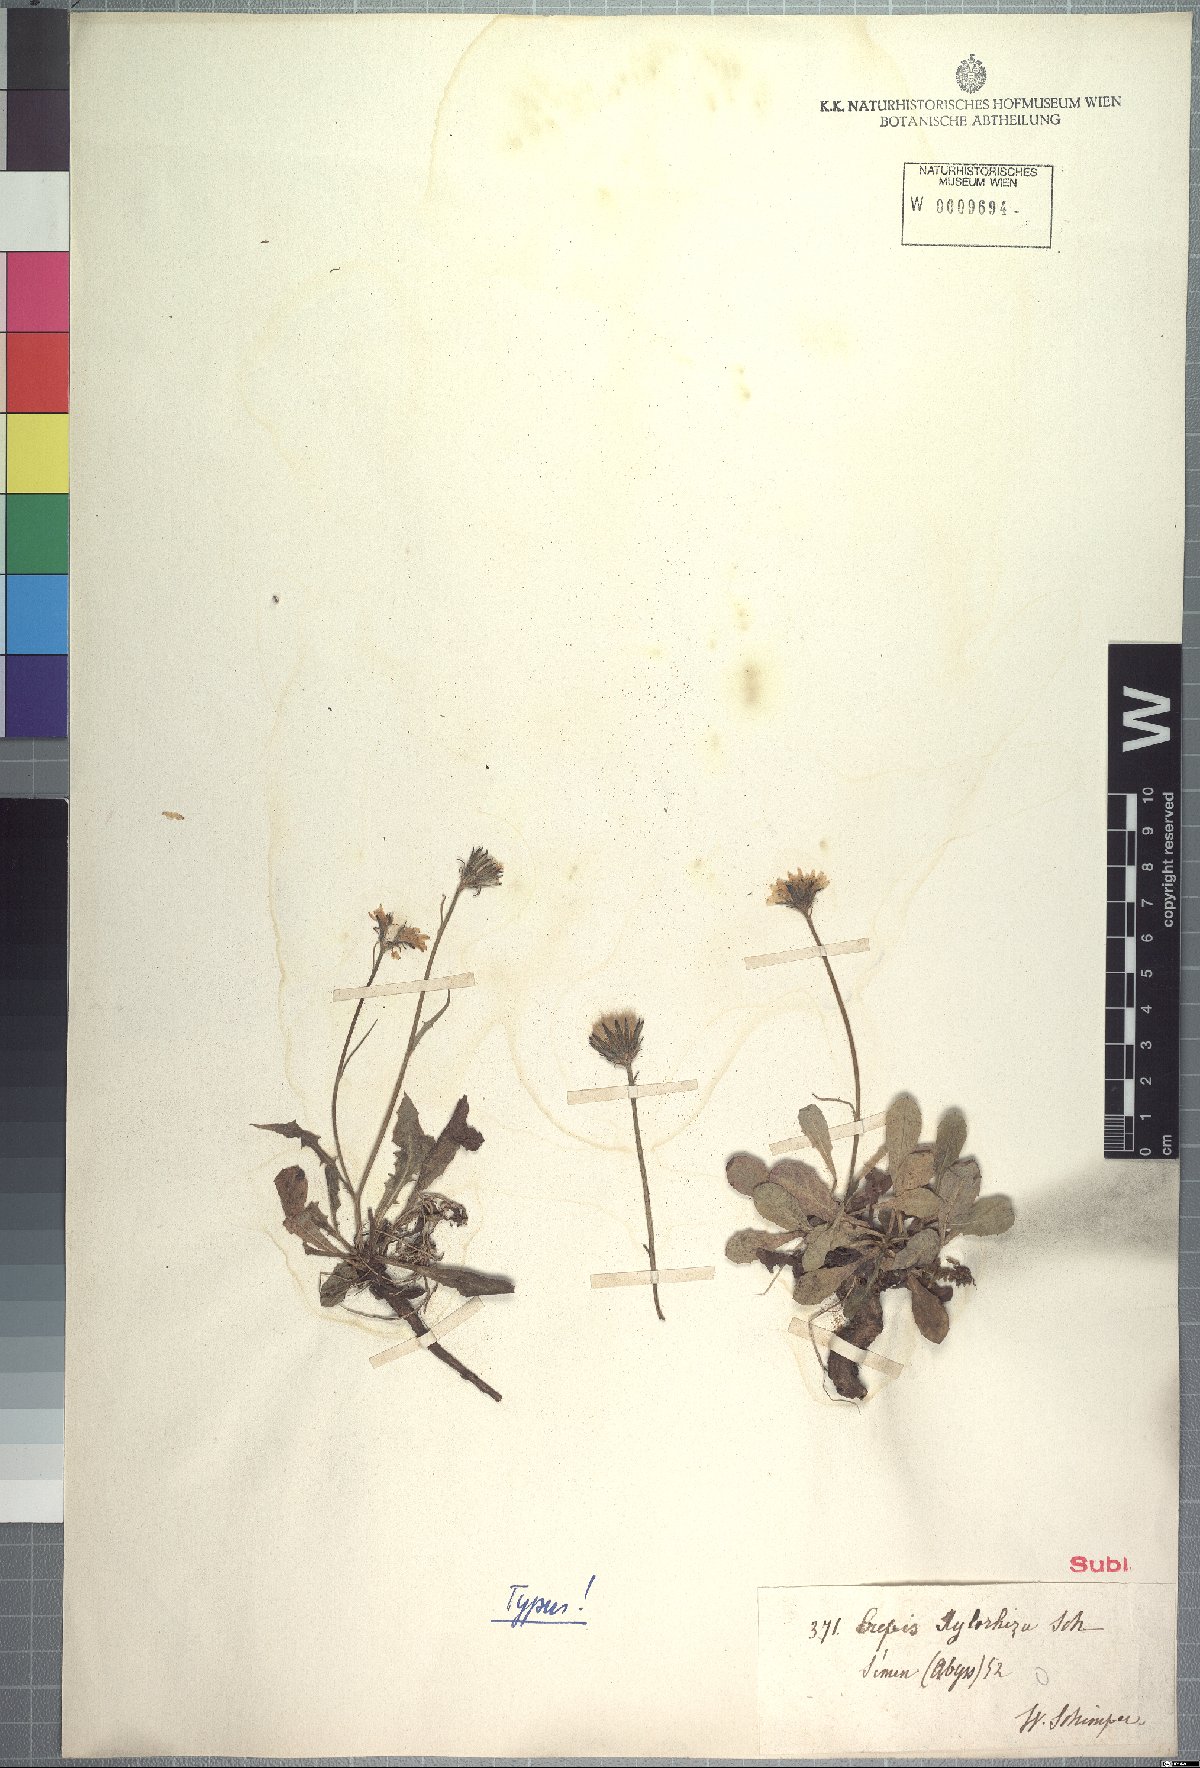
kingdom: Plantae
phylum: Tracheophyta
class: Magnoliopsida
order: Asterales
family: Asteraceae
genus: Crepis
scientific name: Crepis xylorrhiza
